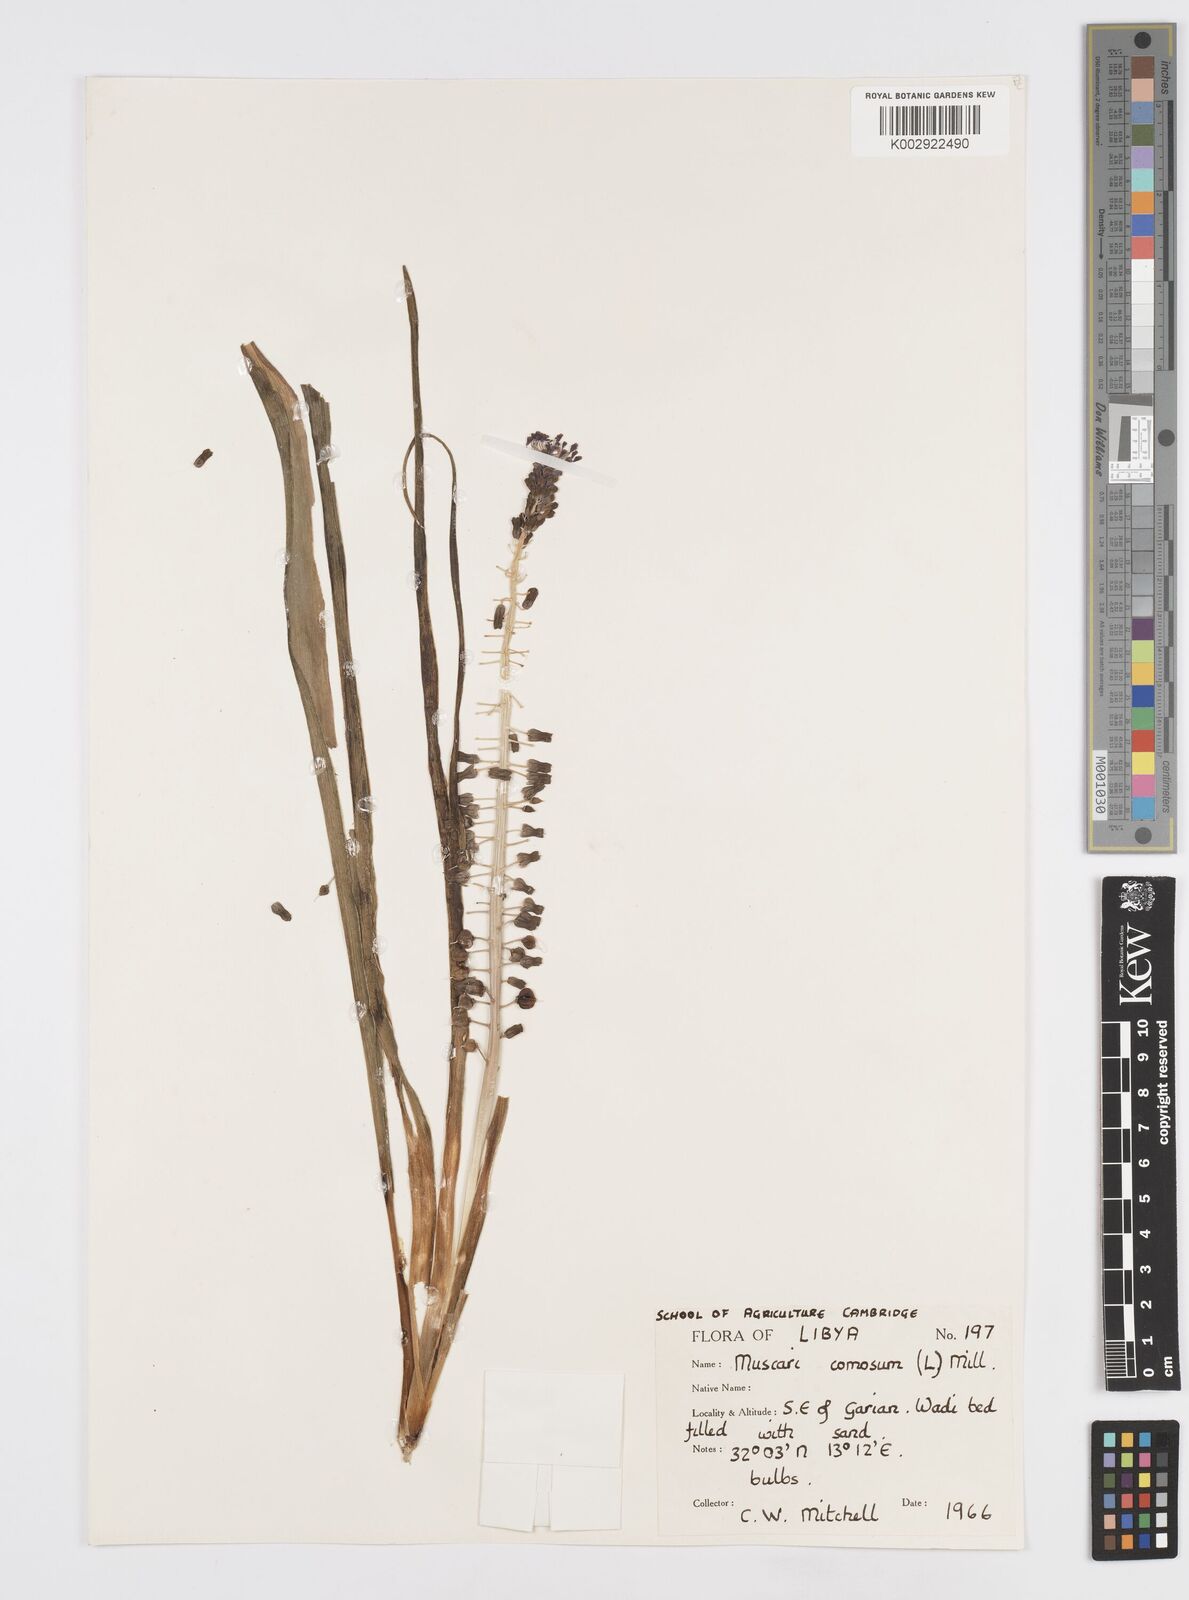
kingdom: Plantae
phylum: Tracheophyta
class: Liliopsida
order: Asparagales
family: Asparagaceae
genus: Muscari
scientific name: Muscari comosum
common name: Tassel hyacinth
